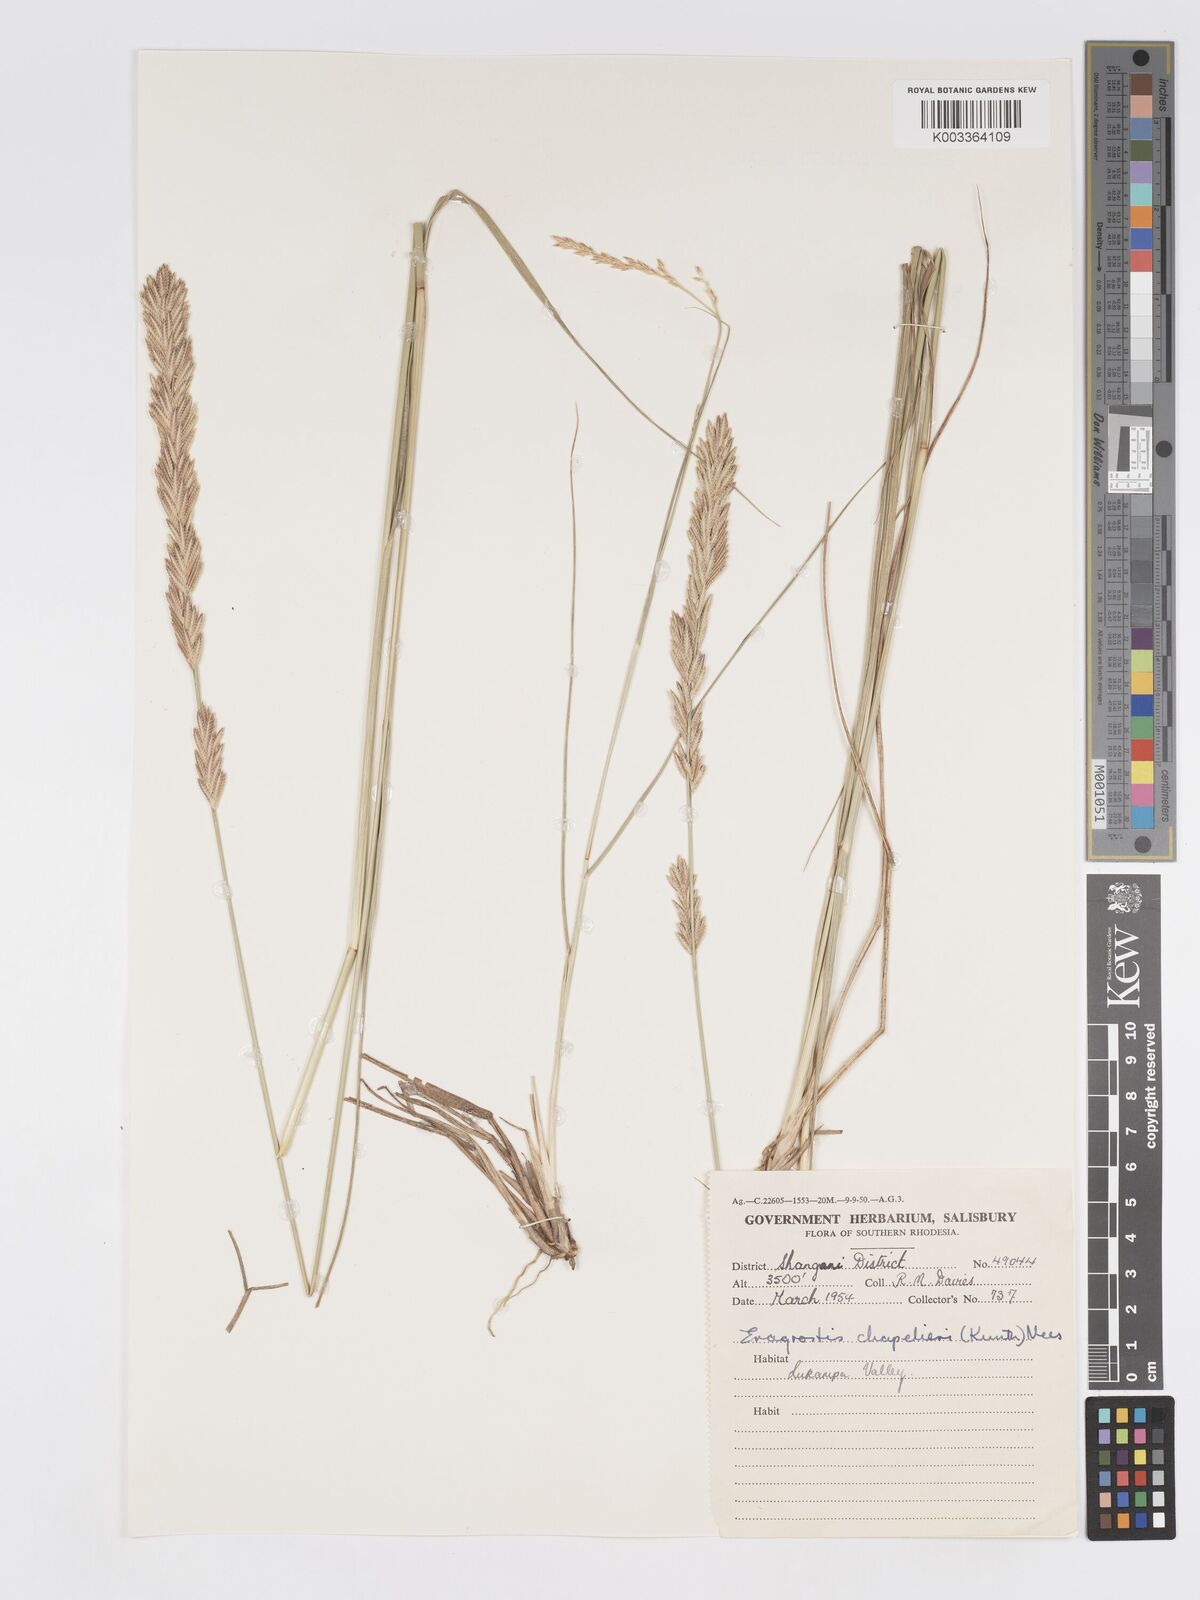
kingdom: Plantae
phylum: Tracheophyta
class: Liliopsida
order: Poales
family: Poaceae
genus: Eragrostis
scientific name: Eragrostis chapelieri
